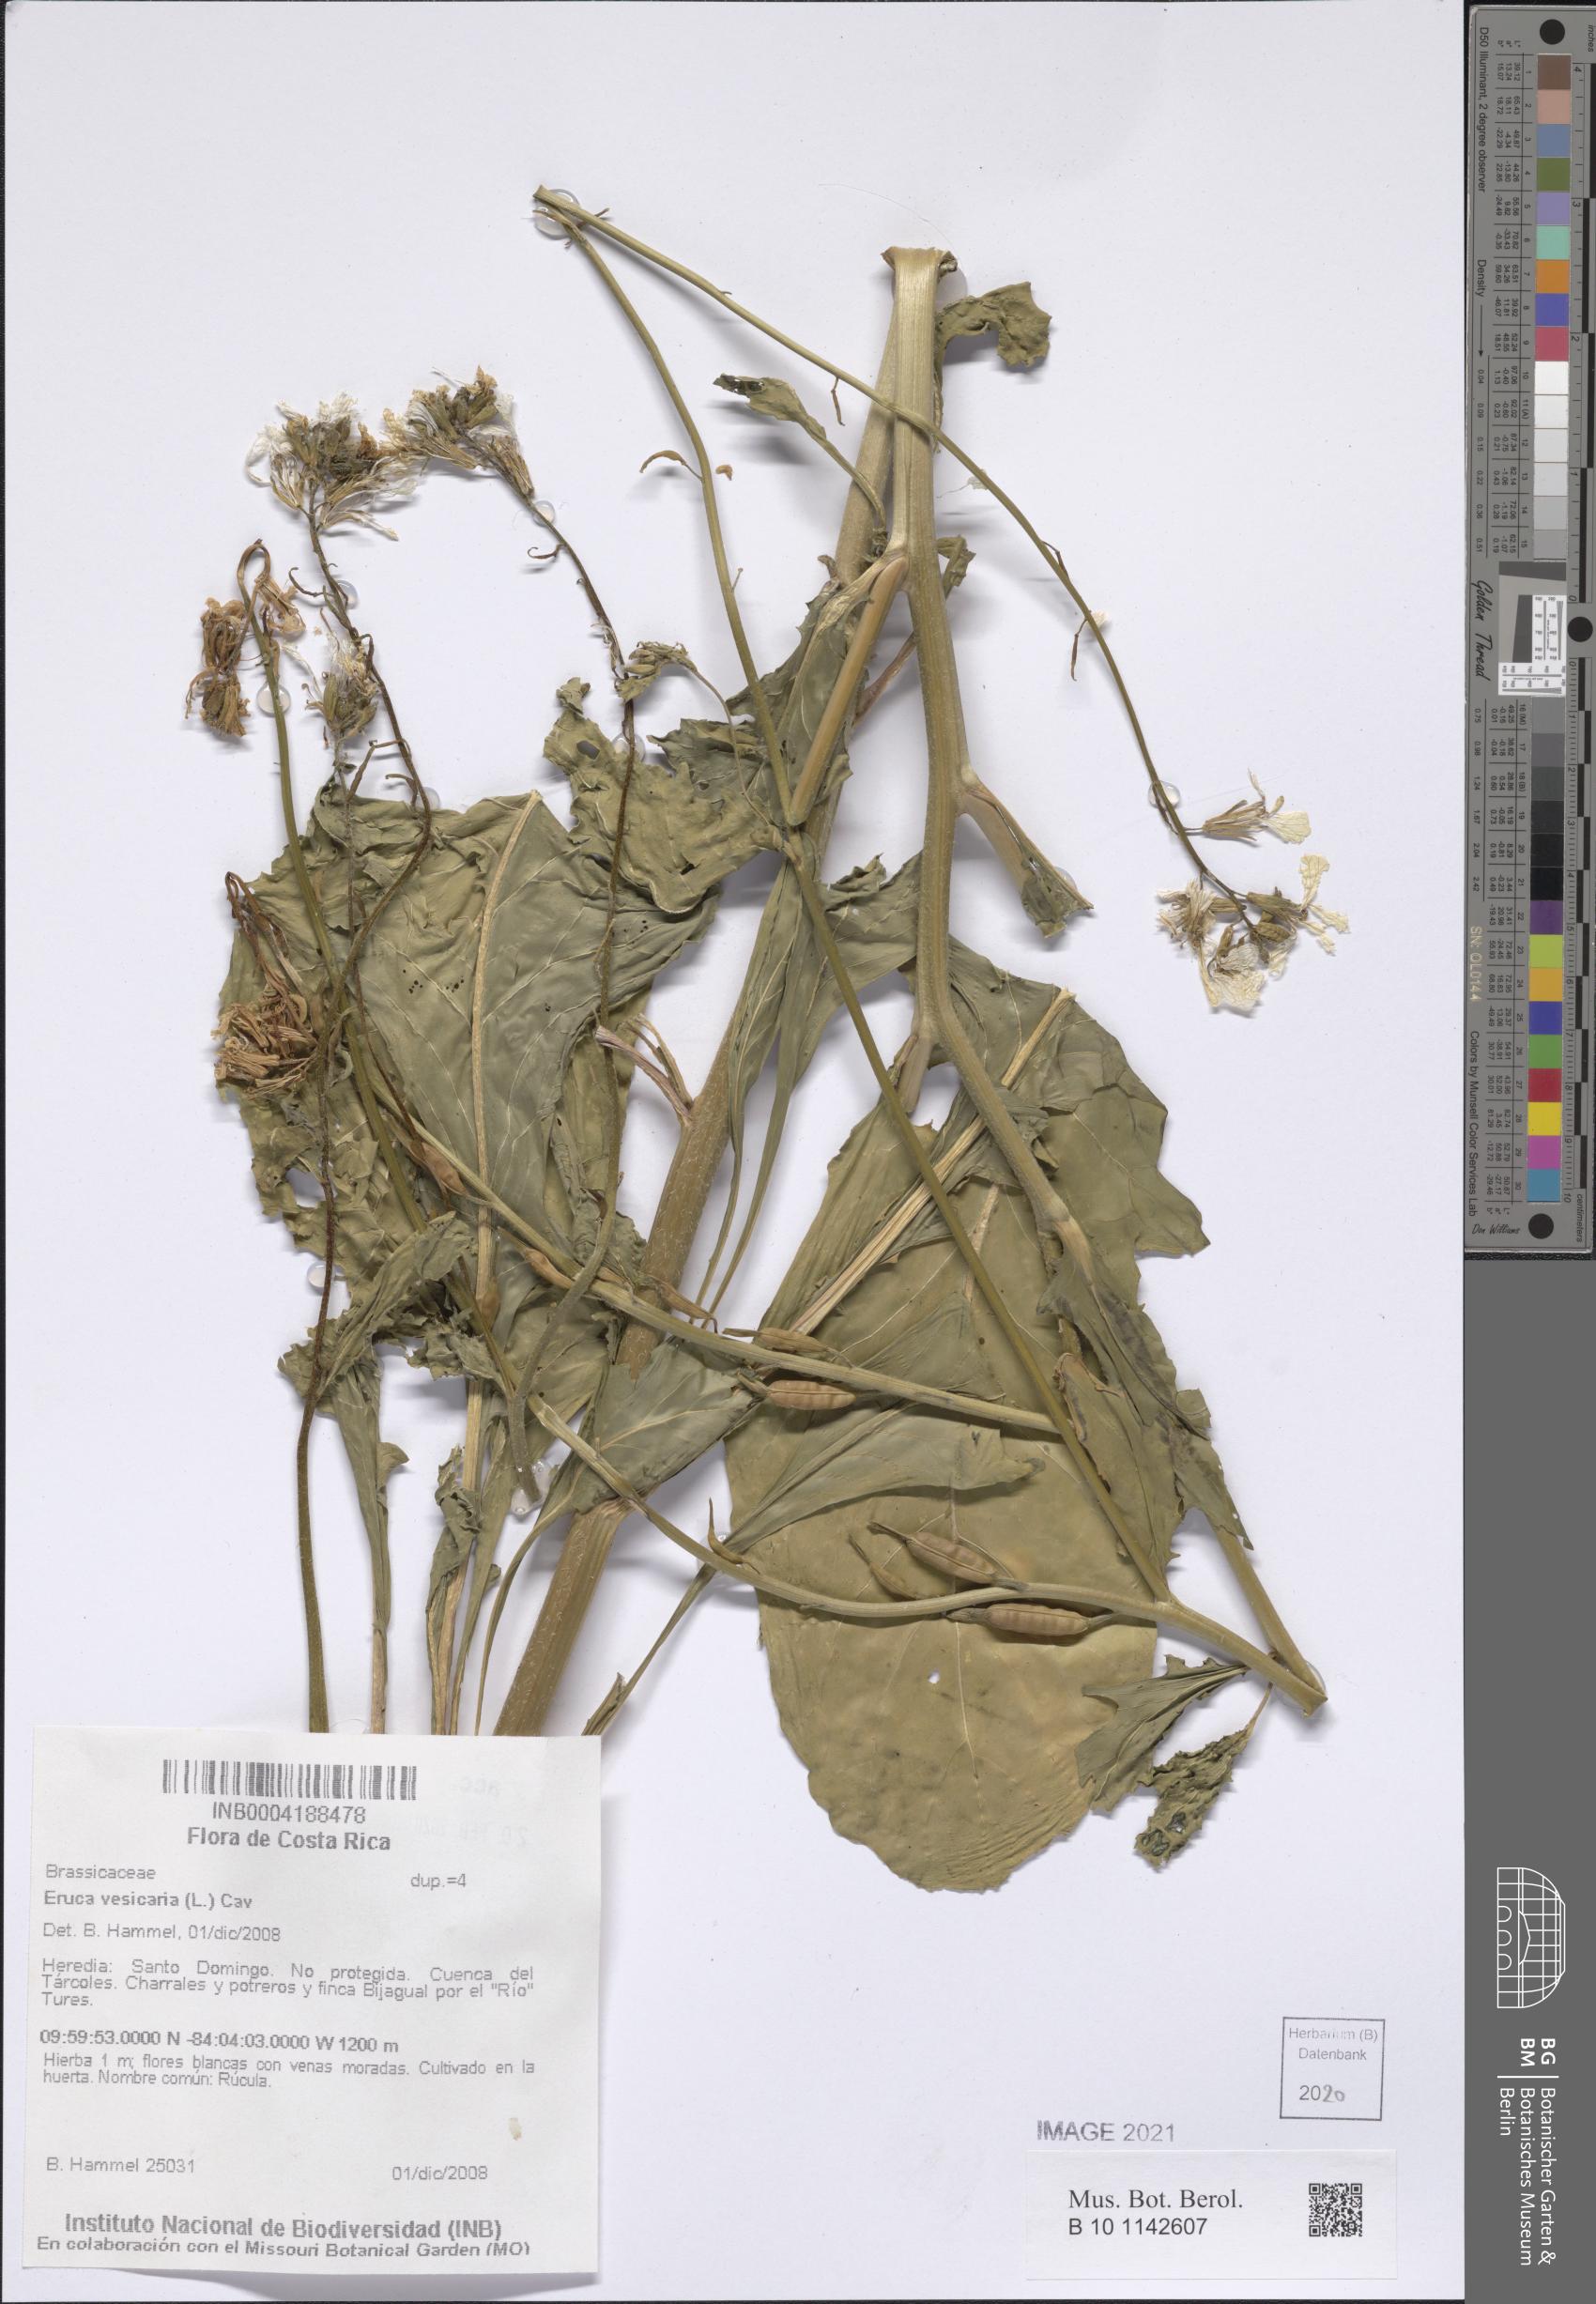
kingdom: Plantae
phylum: Tracheophyta
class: Magnoliopsida
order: Brassicales
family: Brassicaceae
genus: Eruca
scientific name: Eruca vesicaria
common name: Garden rocket
